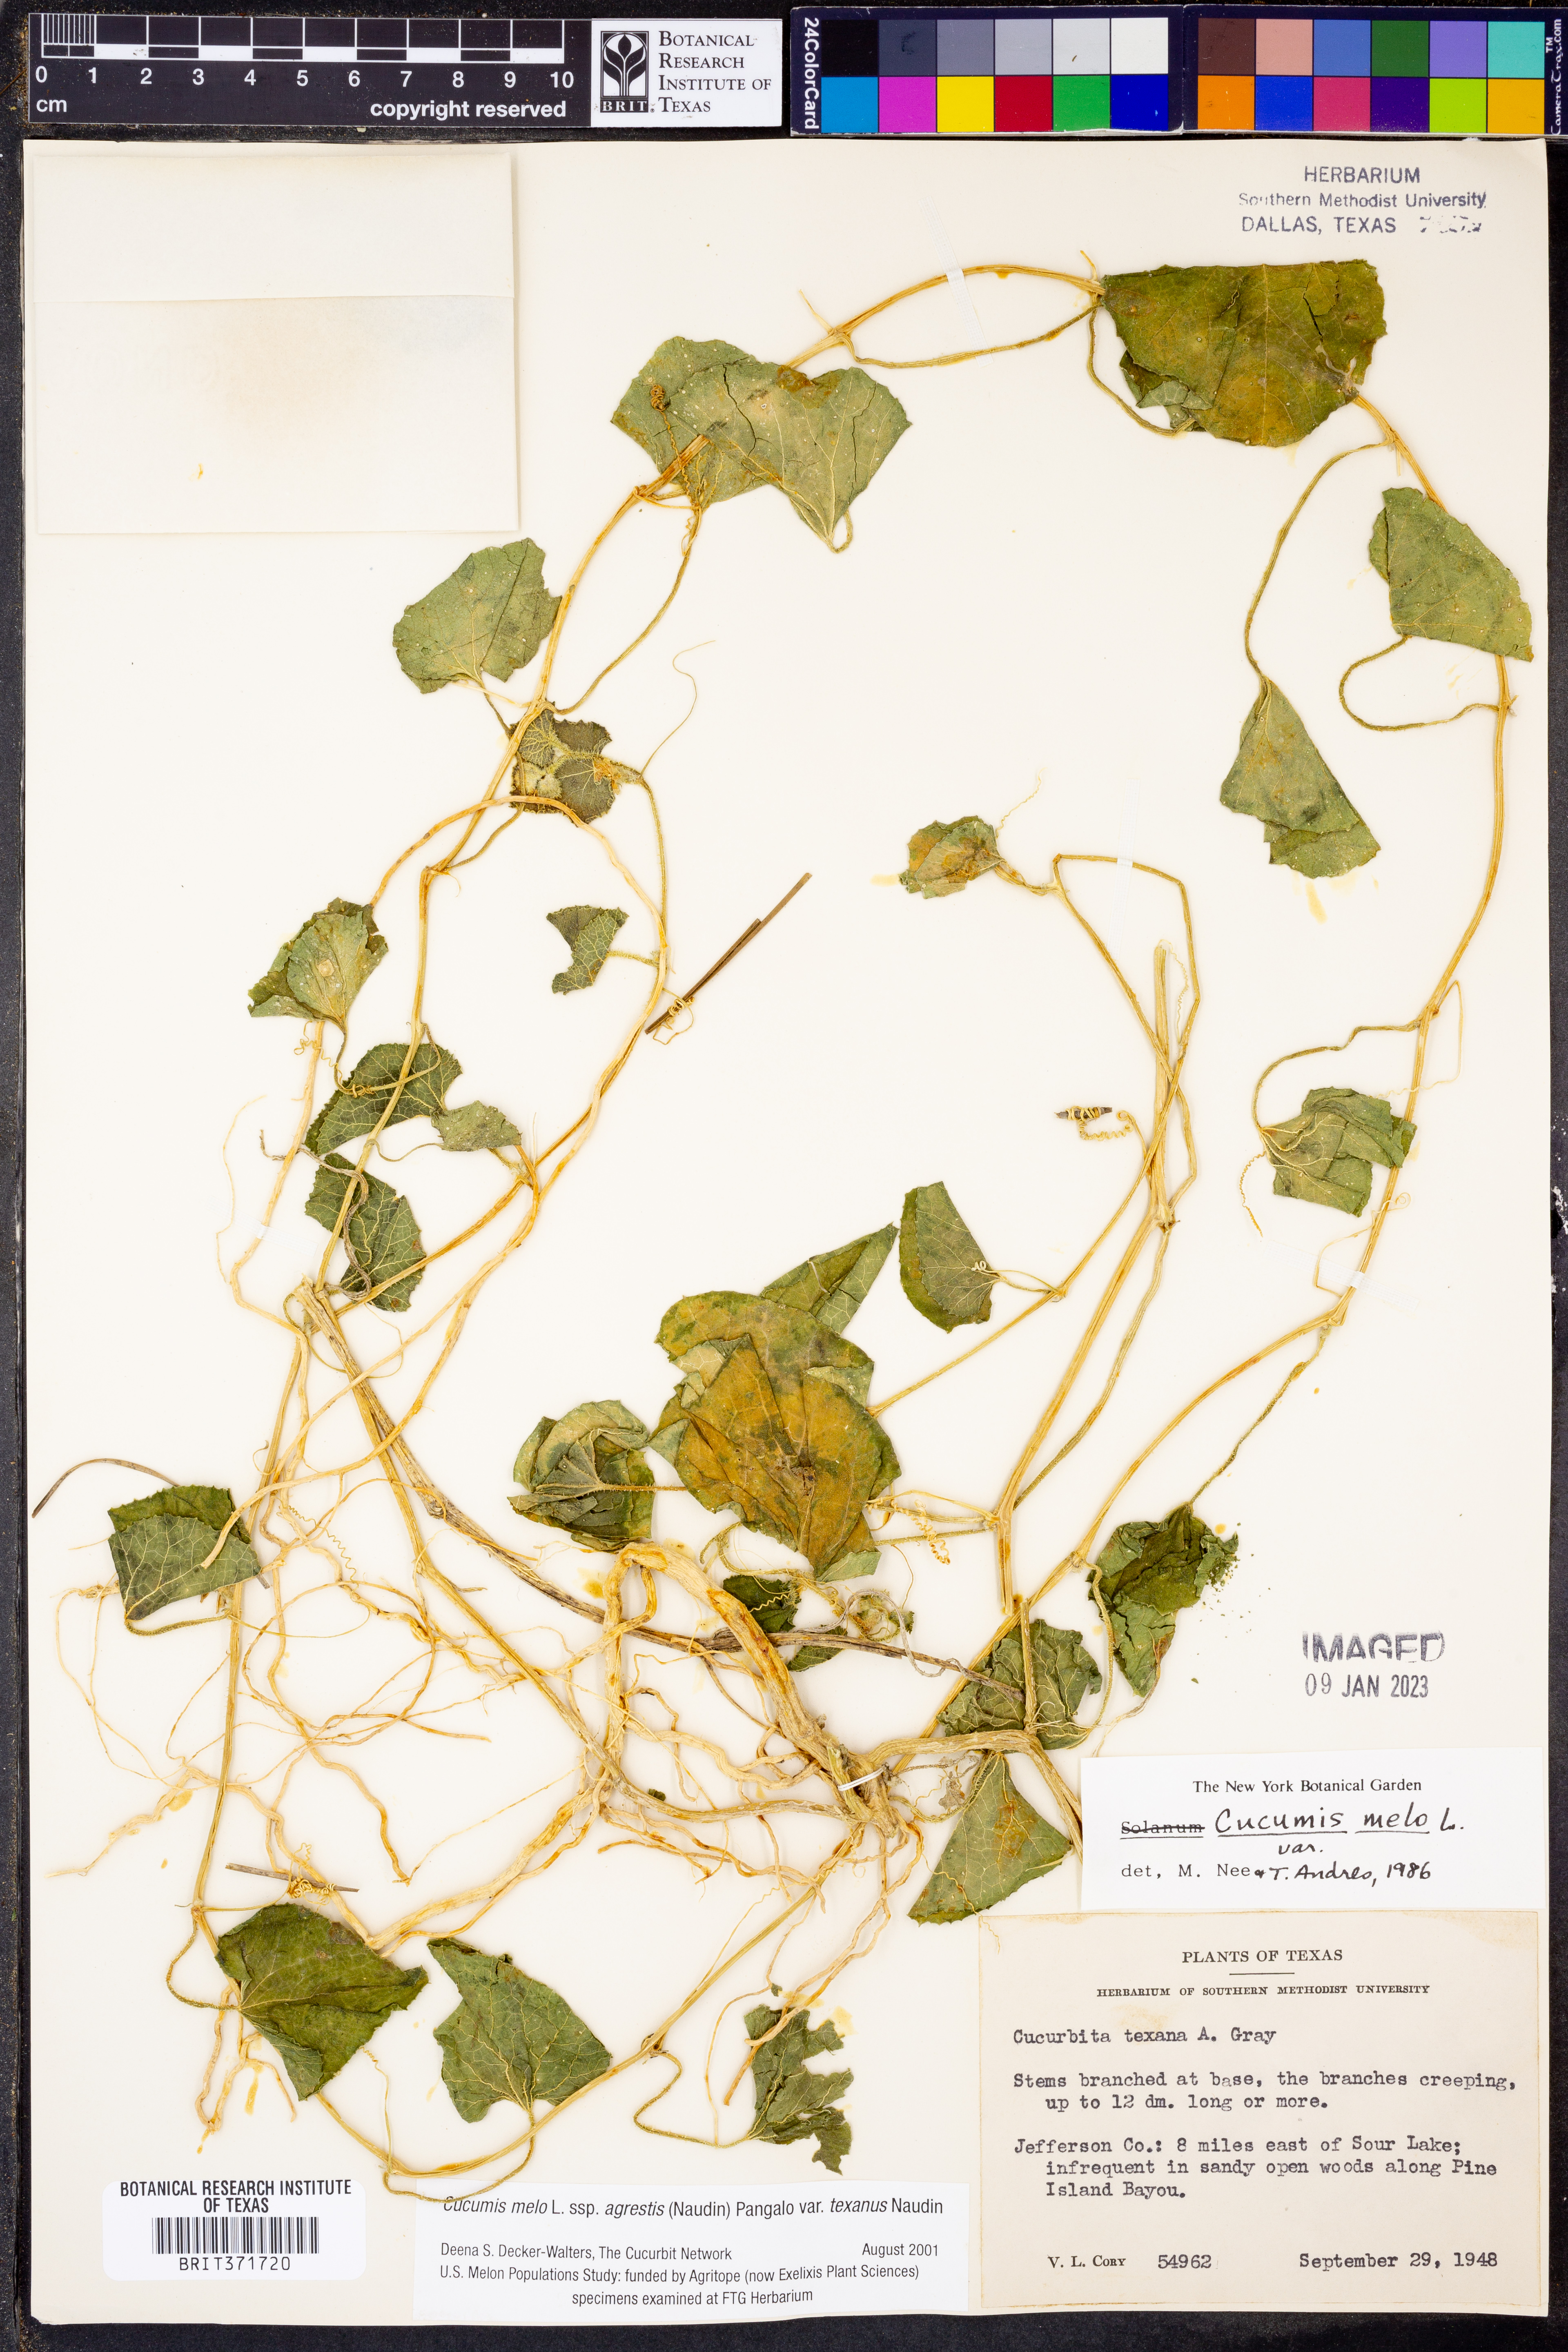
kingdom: Plantae
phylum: Tracheophyta
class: Magnoliopsida
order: Cucurbitales
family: Cucurbitaceae
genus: Cucumis
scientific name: Cucumis melo
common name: Melon
